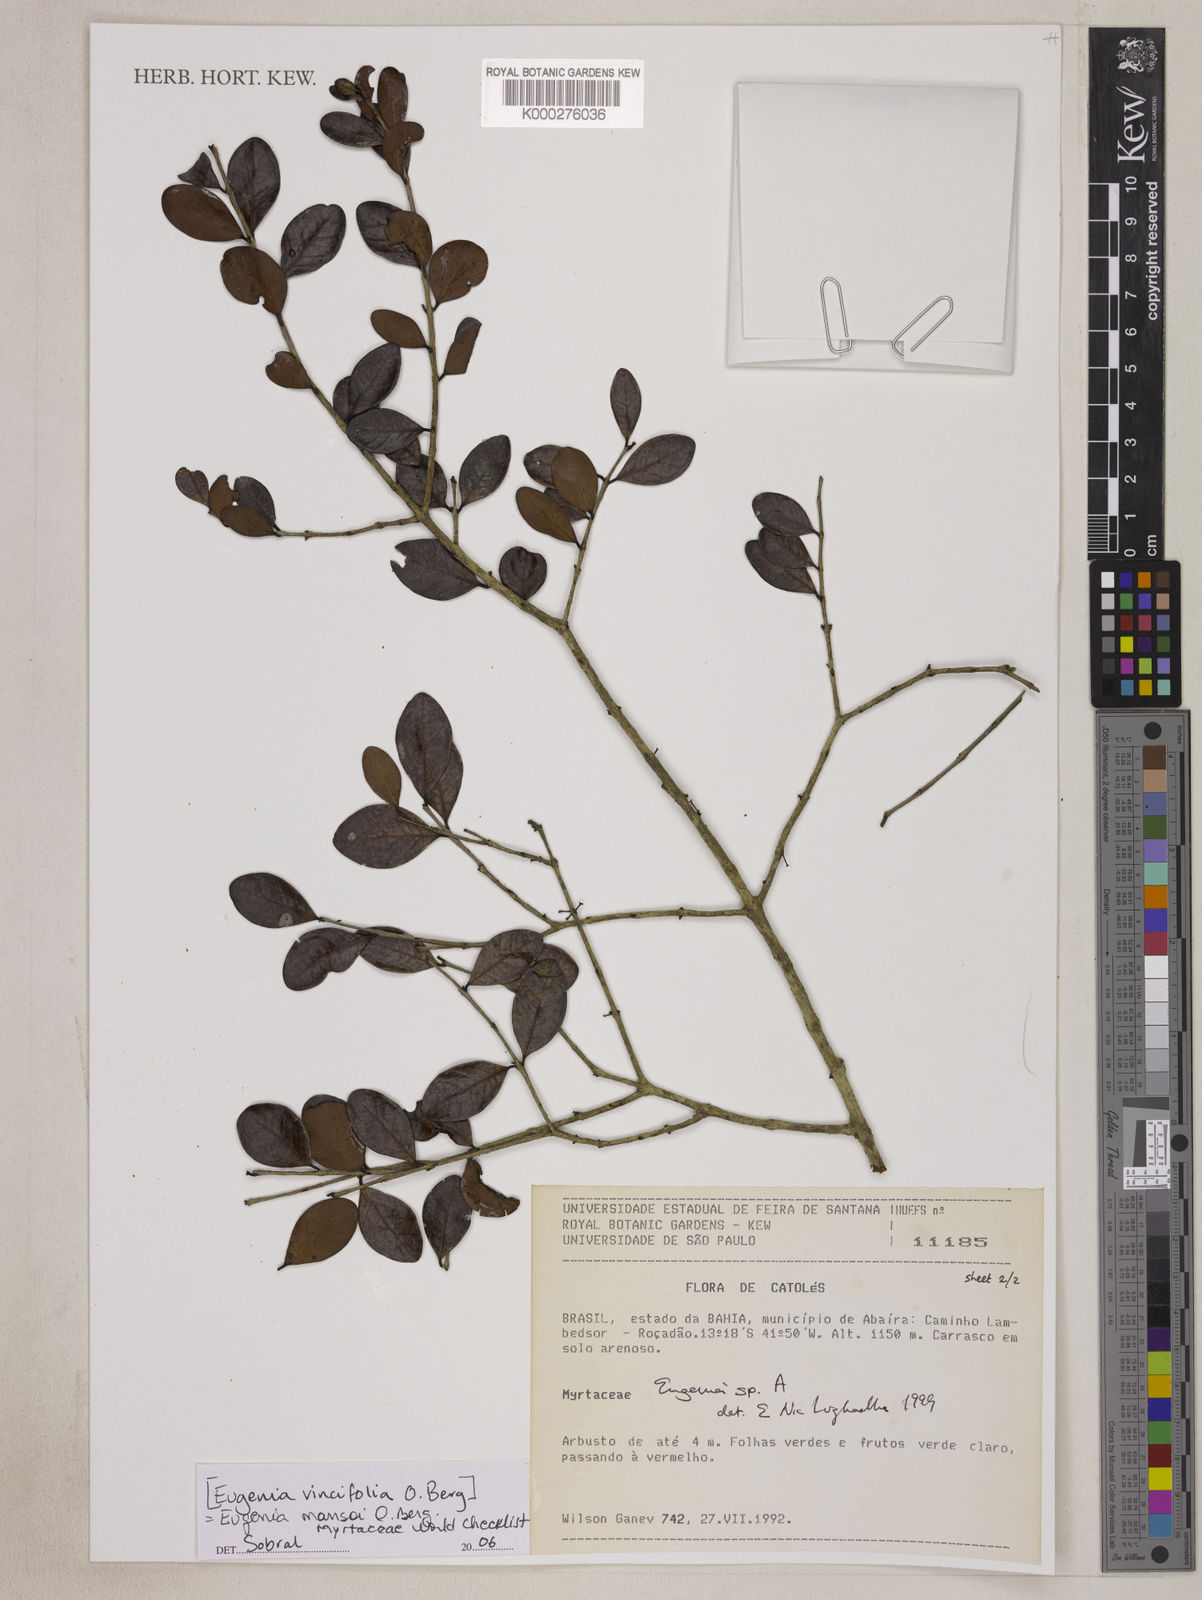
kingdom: Plantae
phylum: Tracheophyta
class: Magnoliopsida
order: Myrtales
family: Myrtaceae
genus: Eugenia
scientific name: Eugenia
